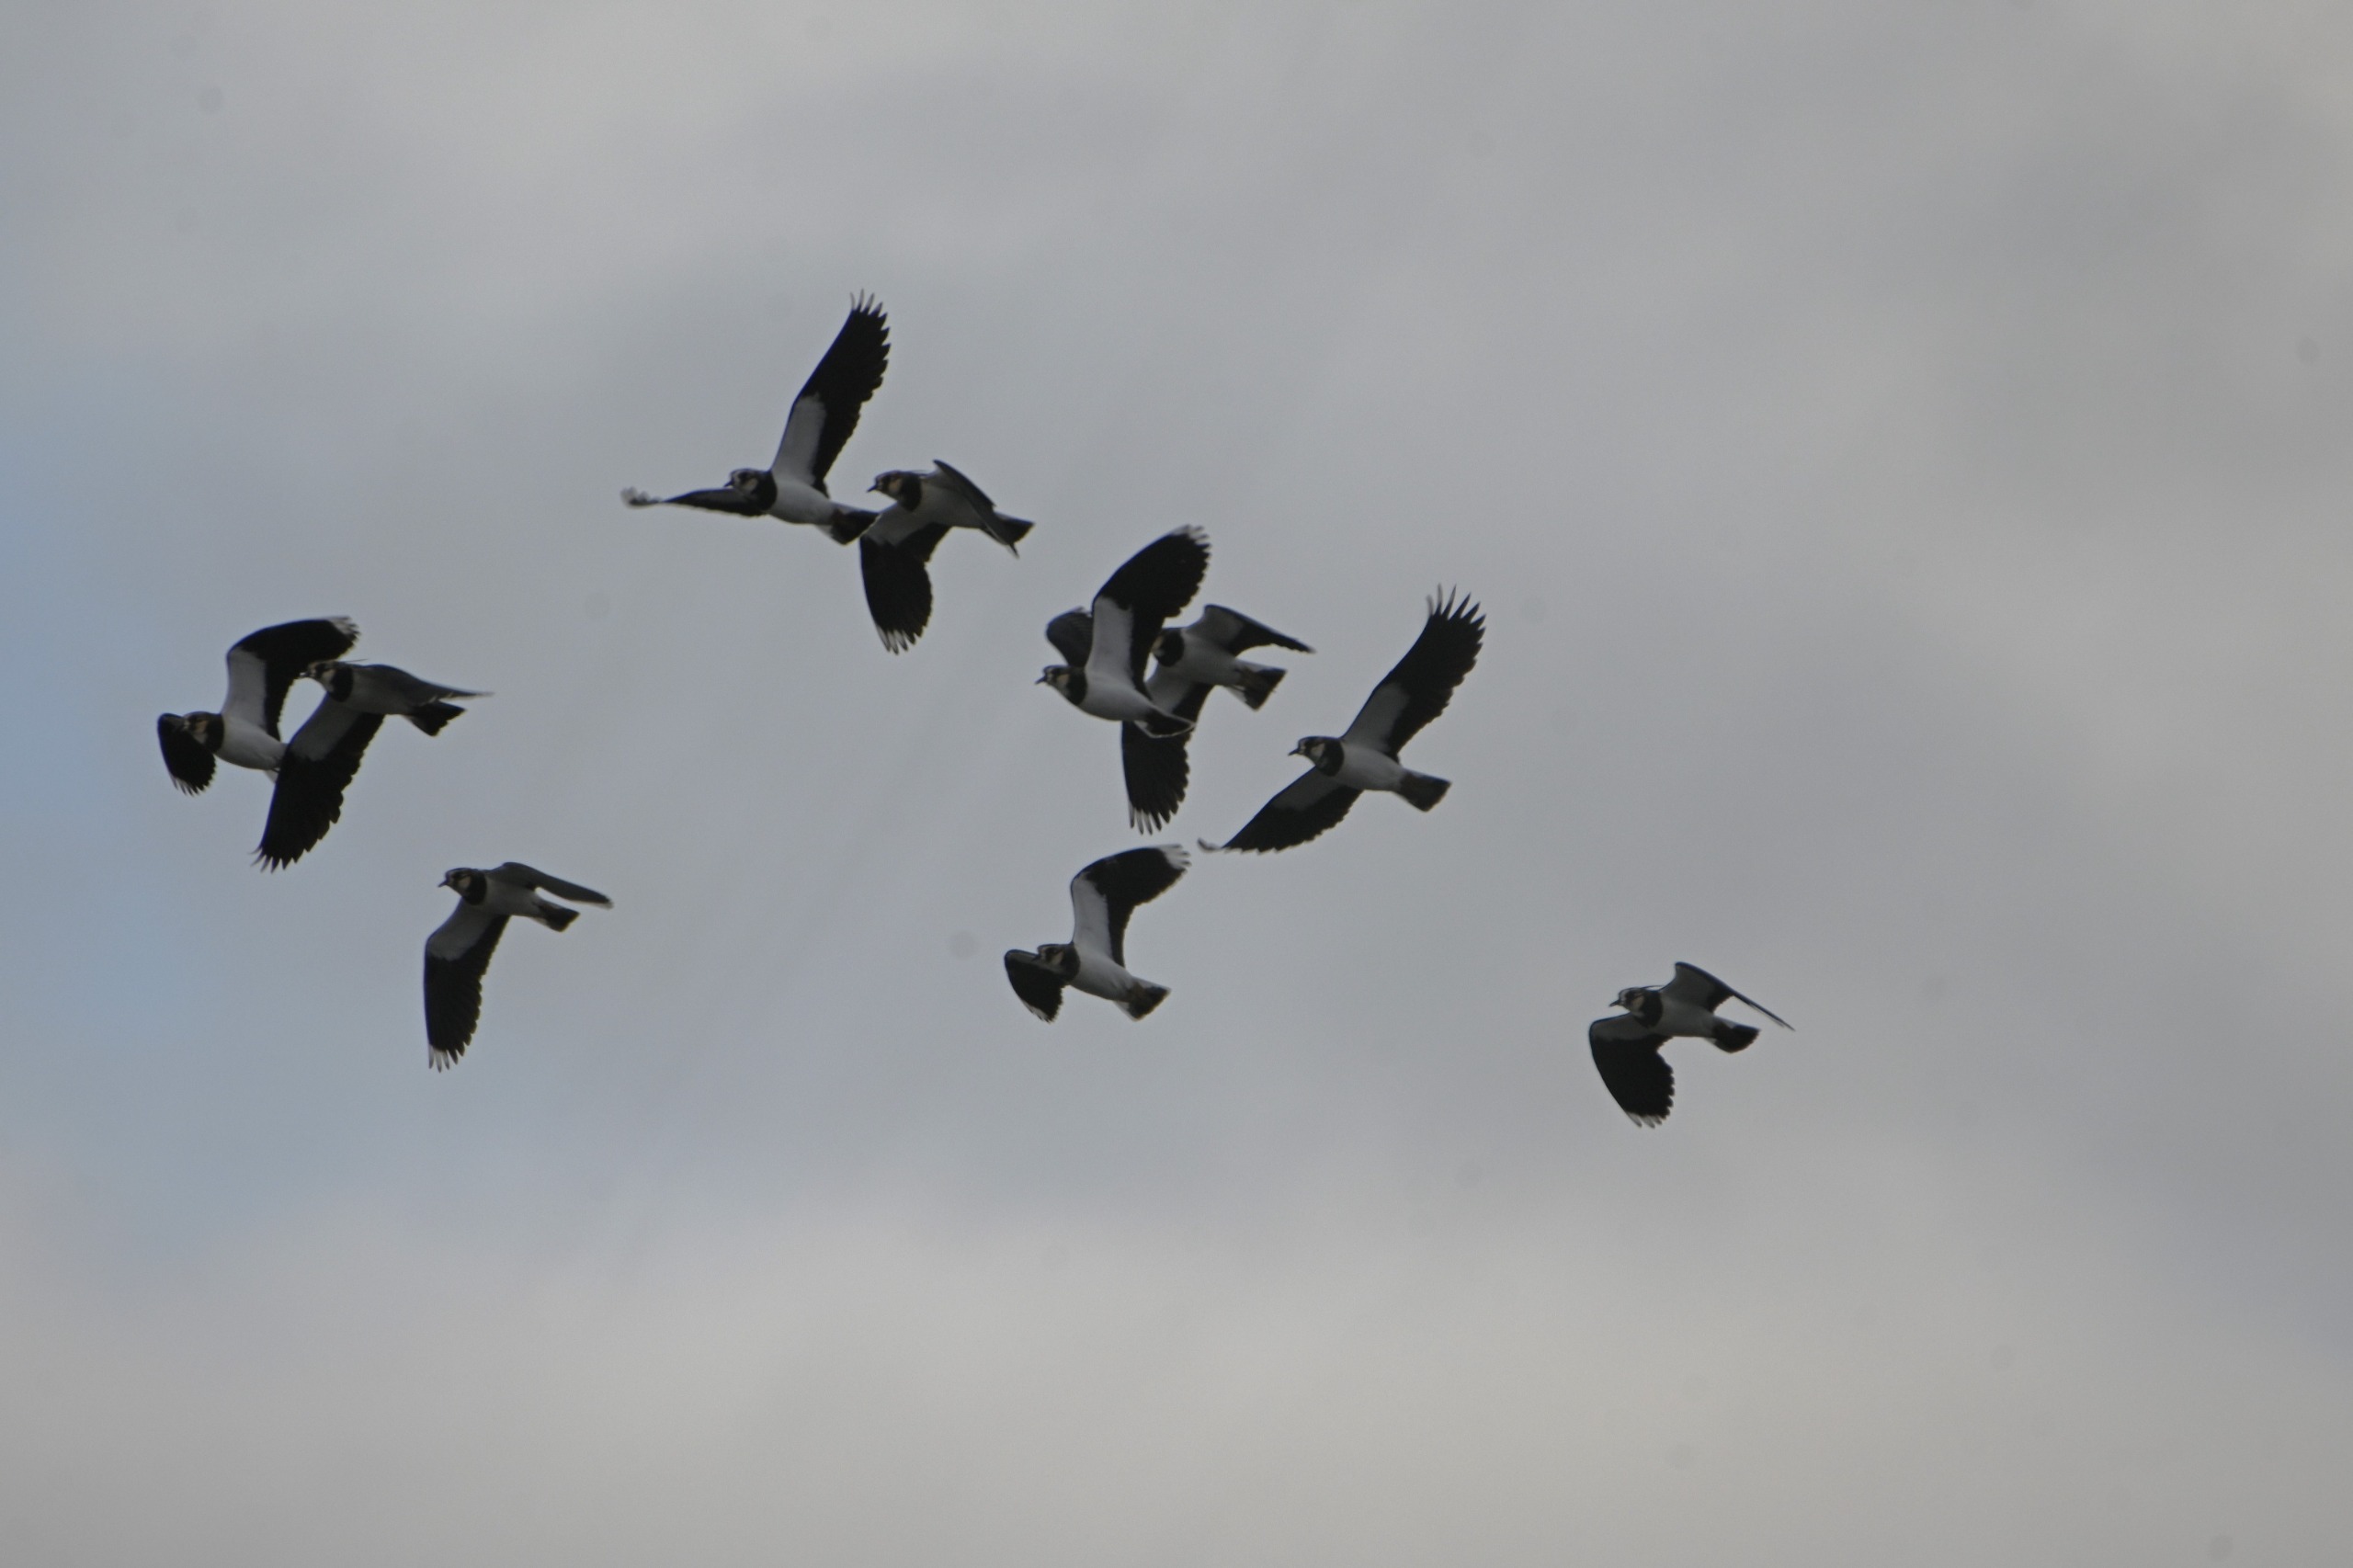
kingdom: Animalia
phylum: Chordata
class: Aves
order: Charadriiformes
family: Charadriidae
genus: Vanellus
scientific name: Vanellus vanellus
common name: Vibe
